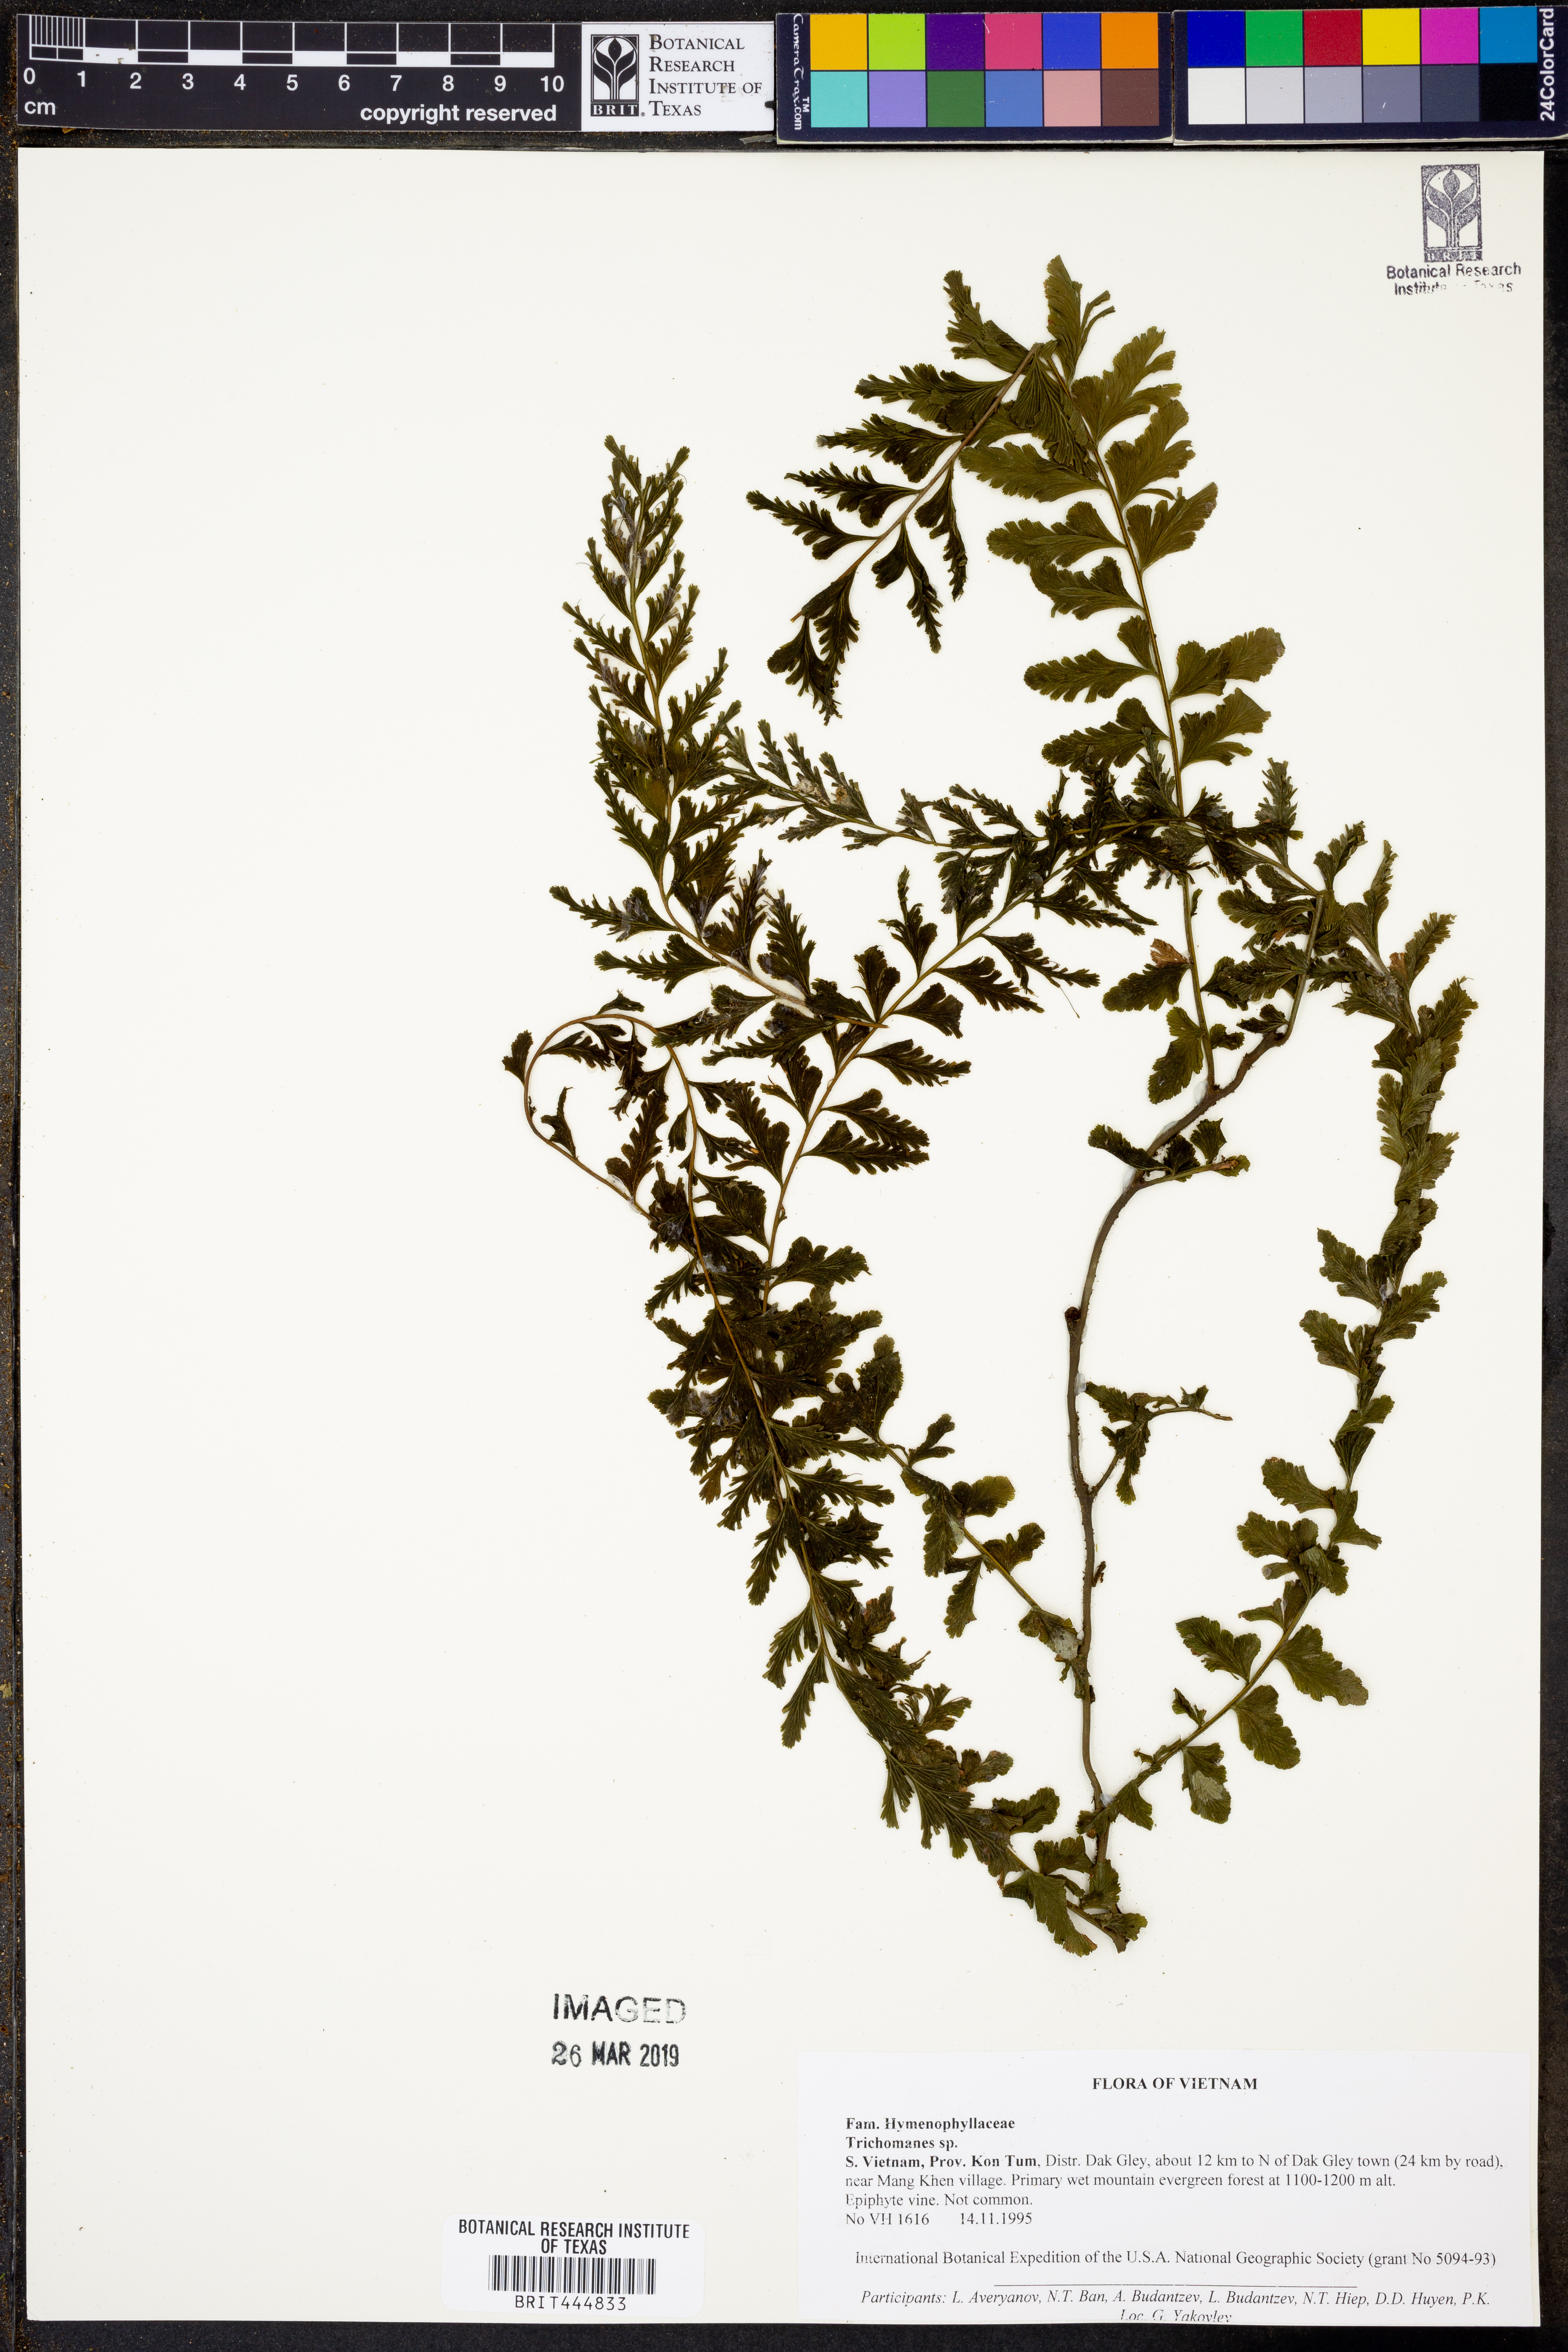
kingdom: Plantae
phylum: Tracheophyta
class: Polypodiopsida
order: Hymenophyllales
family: Hymenophyllaceae
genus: Trichomanes
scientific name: Trichomanes
